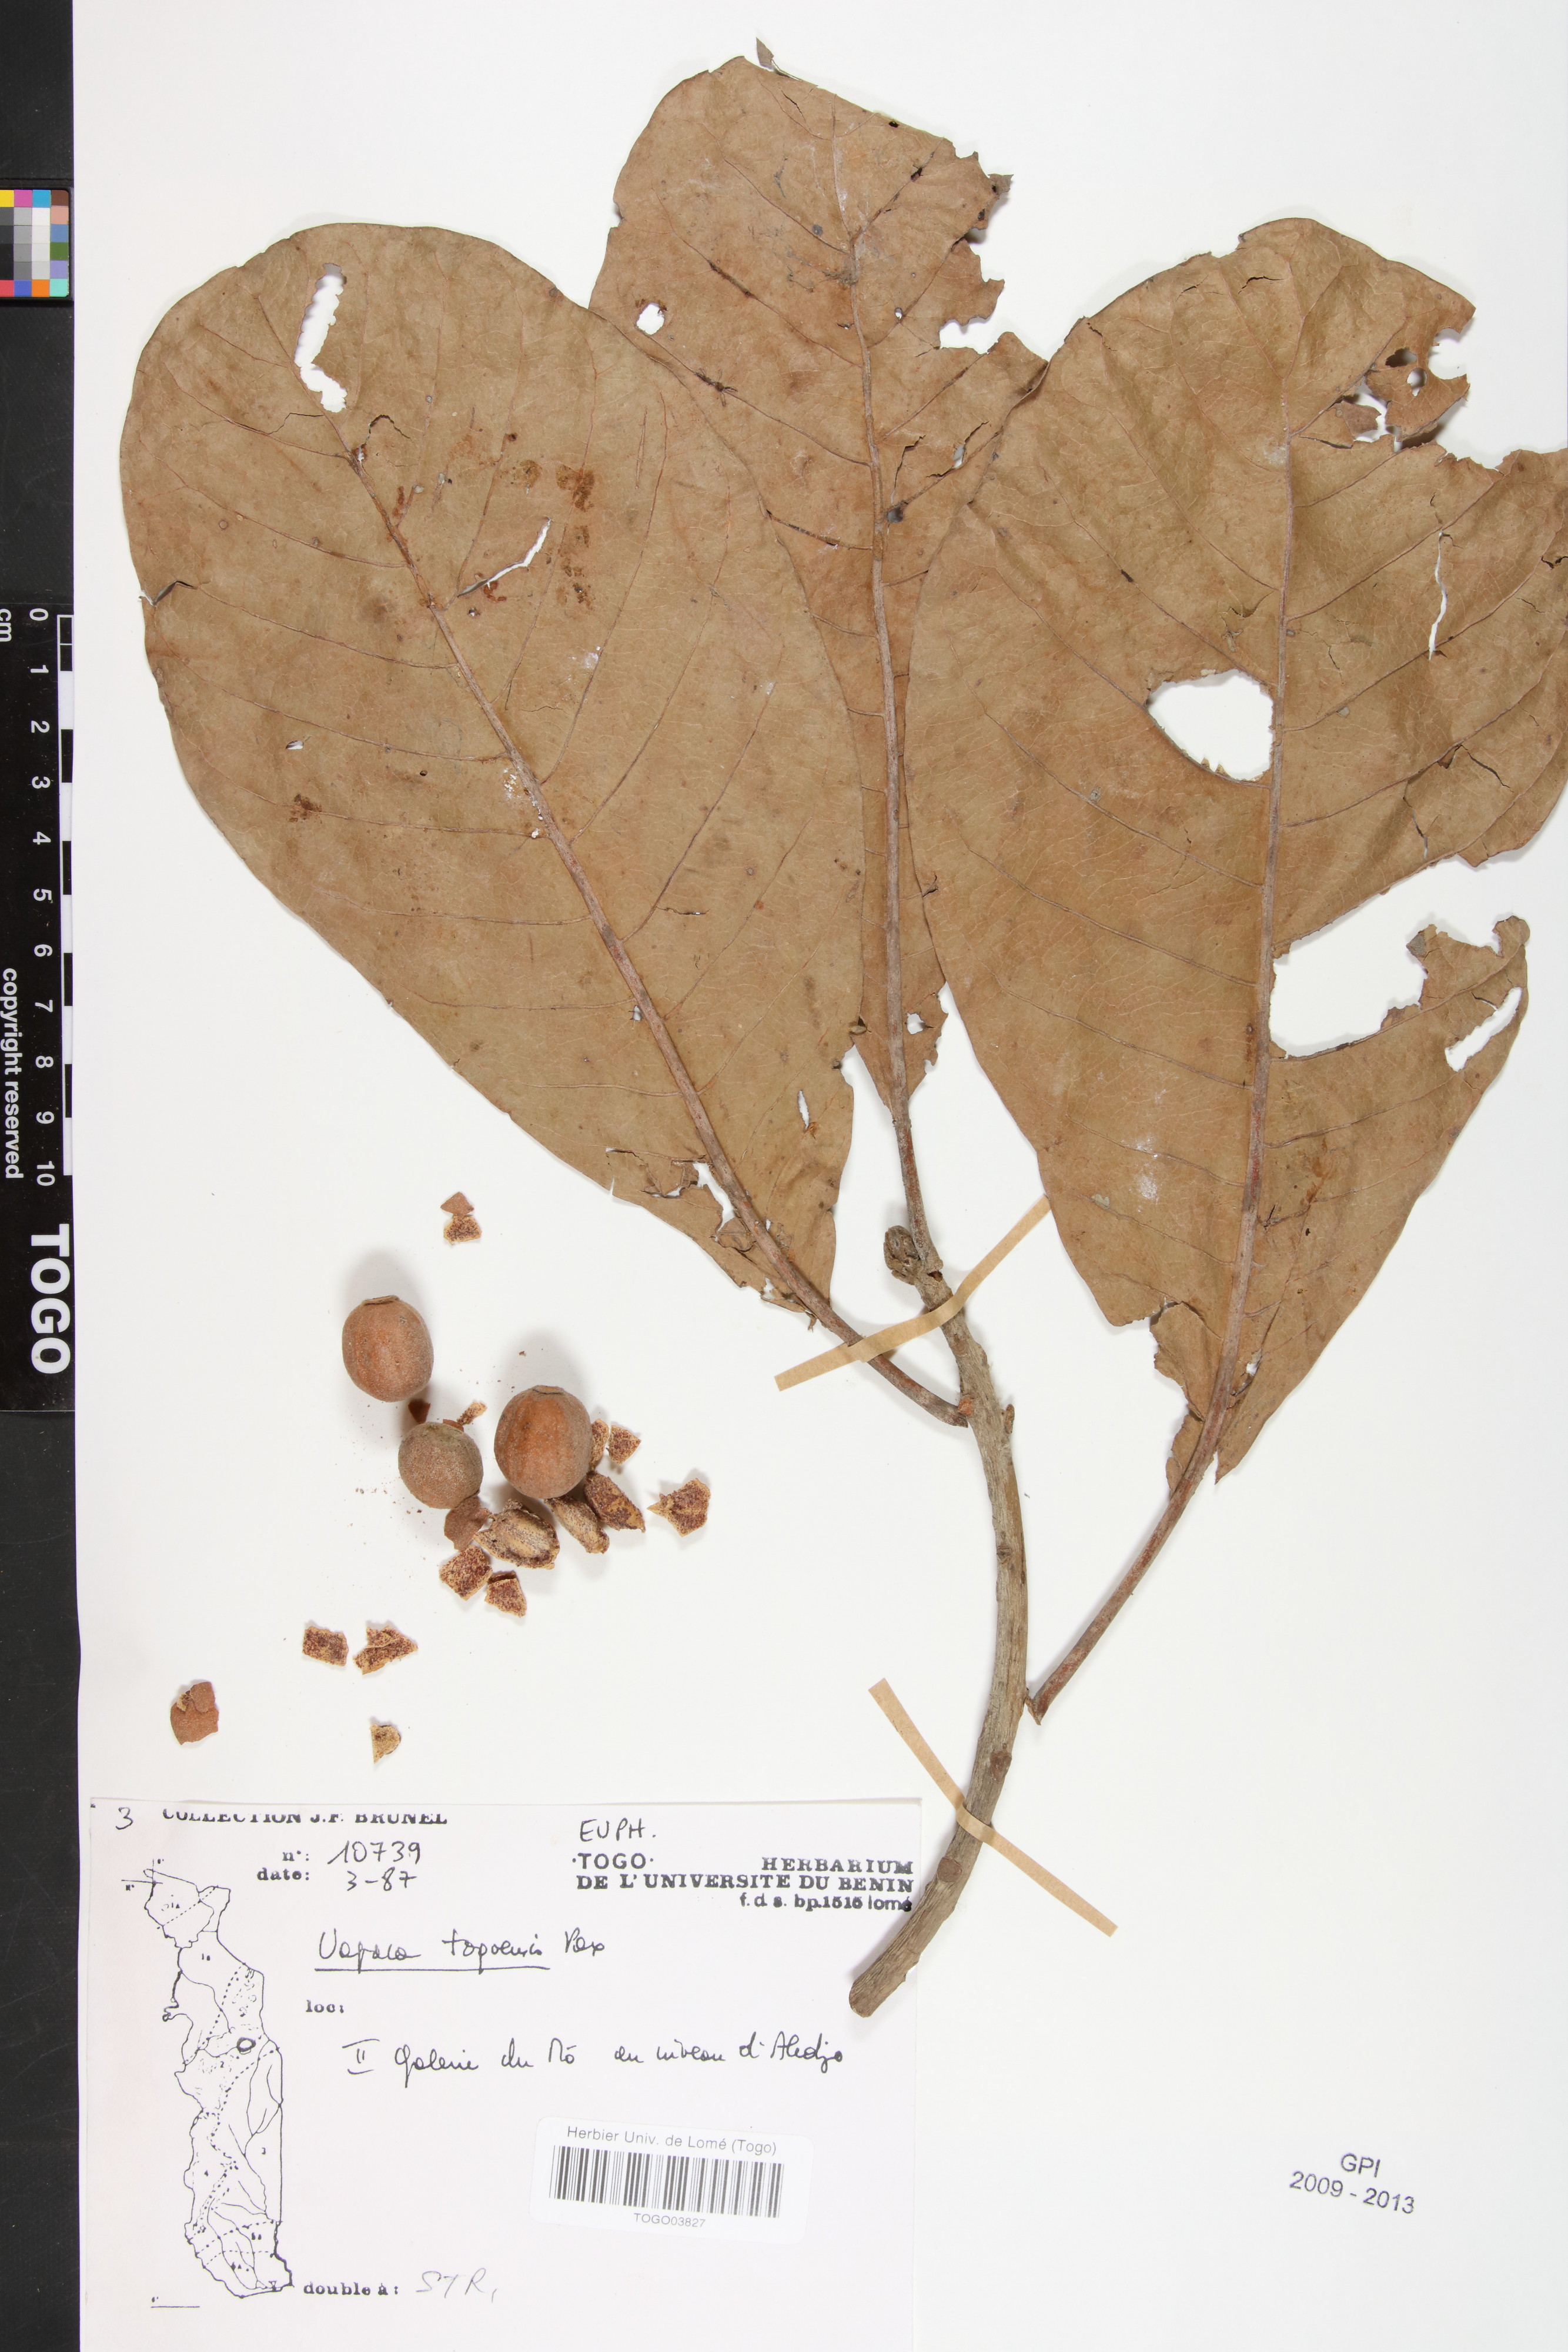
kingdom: Plantae
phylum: Tracheophyta
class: Magnoliopsida
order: Malpighiales
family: Phyllanthaceae
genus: Uapaca
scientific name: Uapaca togoensis
